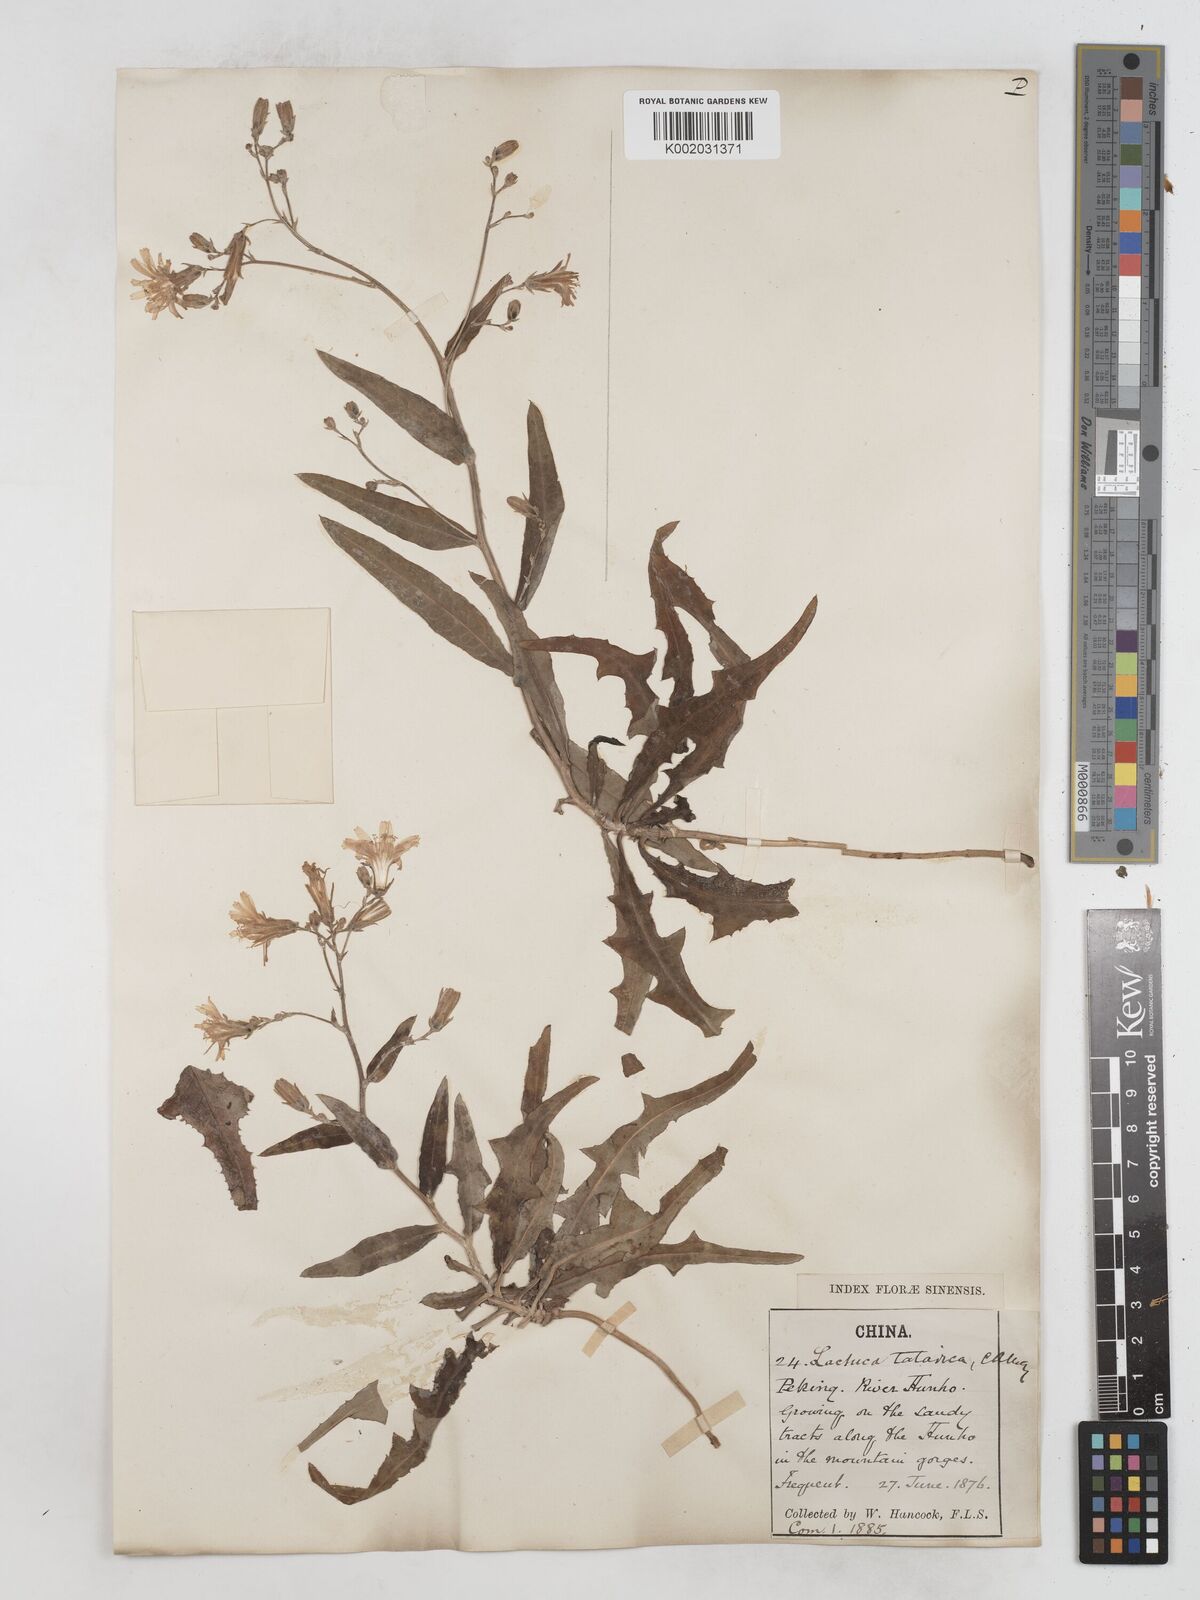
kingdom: Plantae
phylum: Tracheophyta
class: Magnoliopsida
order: Asterales
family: Asteraceae
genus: Lactuca
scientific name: Lactuca tatarica
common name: Blue lettuce
